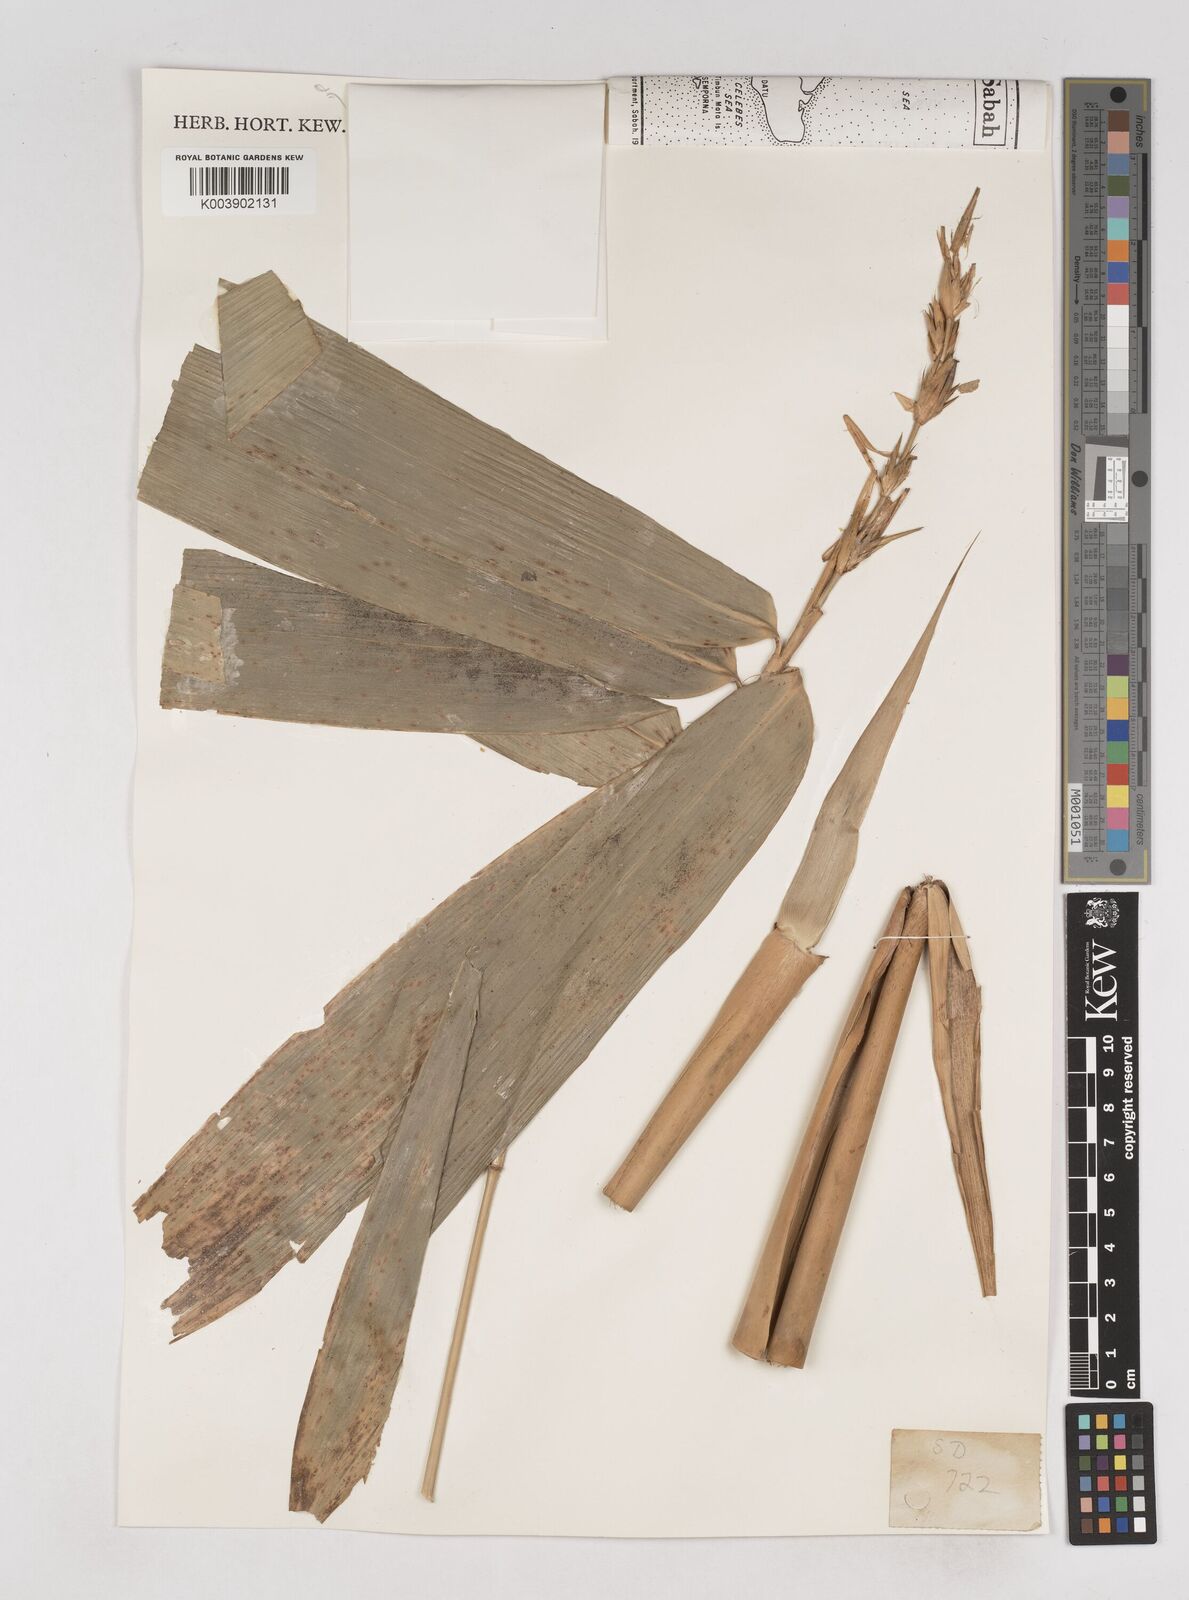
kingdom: Plantae
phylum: Tracheophyta
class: Liliopsida
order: Poales
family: Poaceae
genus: Schizostachyum
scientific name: Schizostachyum
